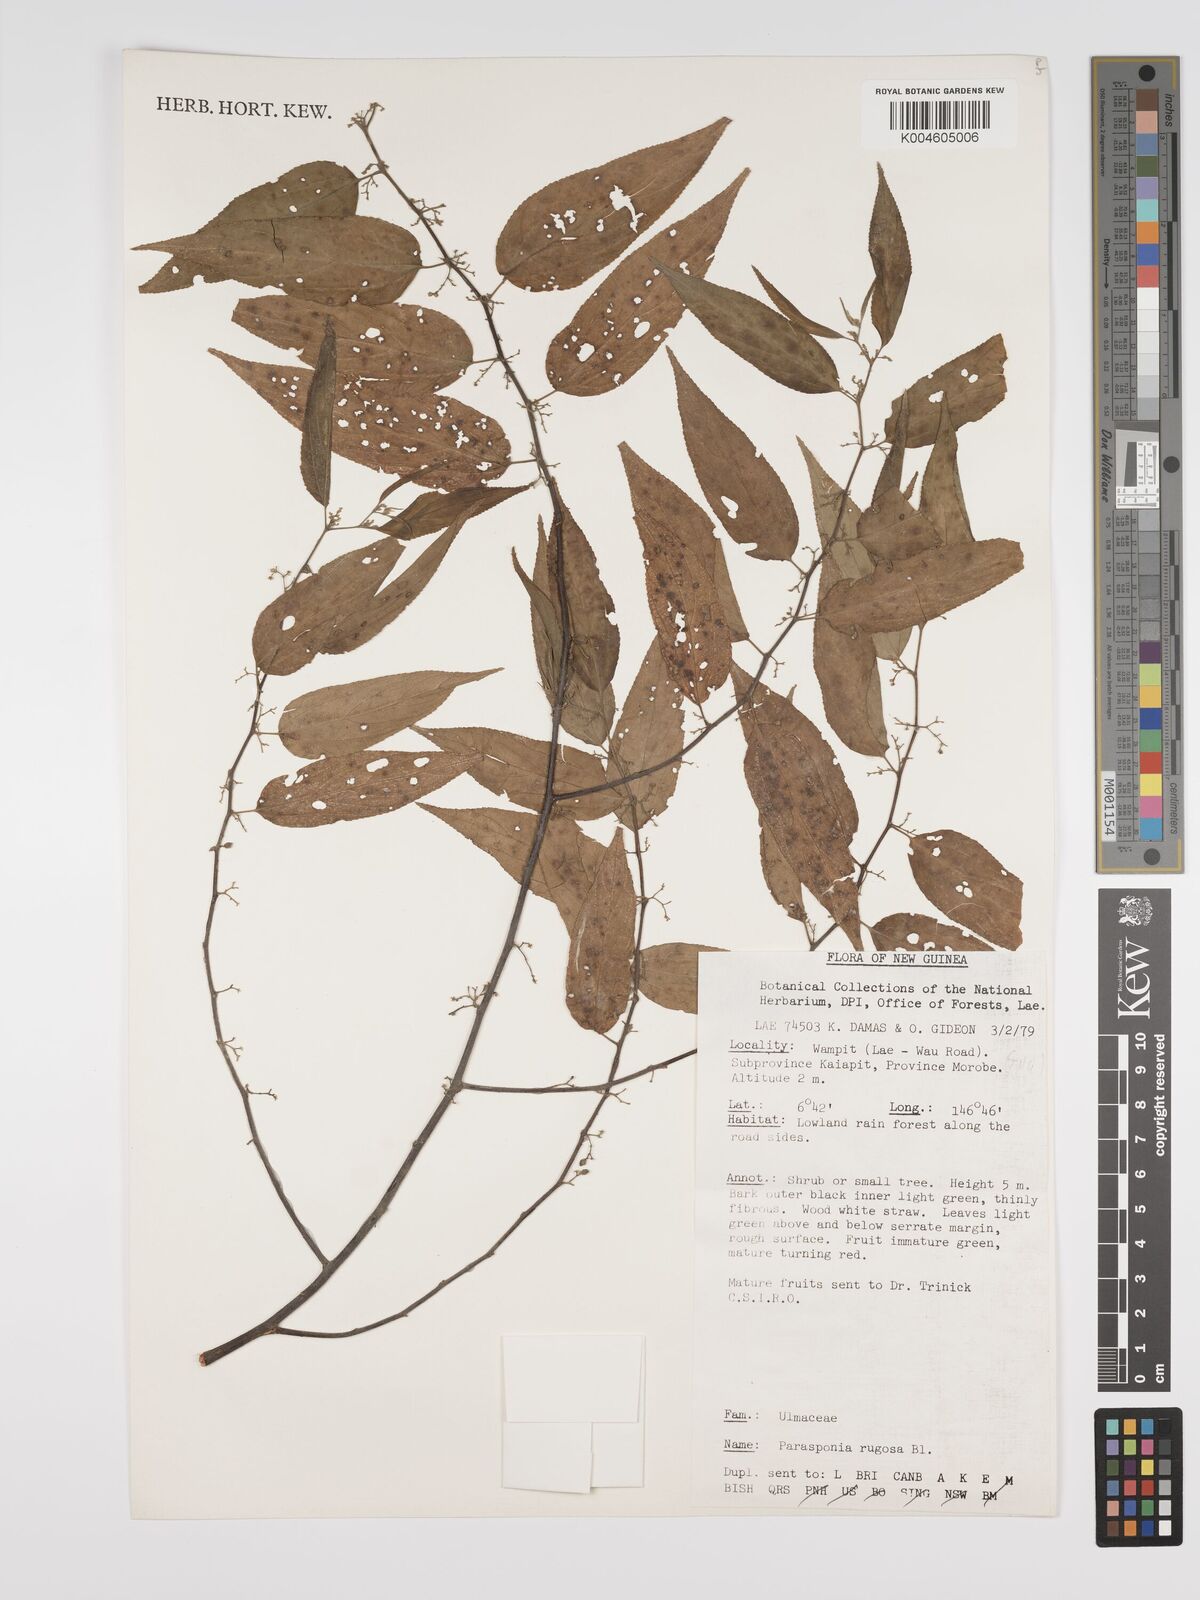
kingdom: Plantae
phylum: Tracheophyta
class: Magnoliopsida
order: Rosales
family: Cannabaceae
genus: Trema
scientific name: Trema eurhynchum
